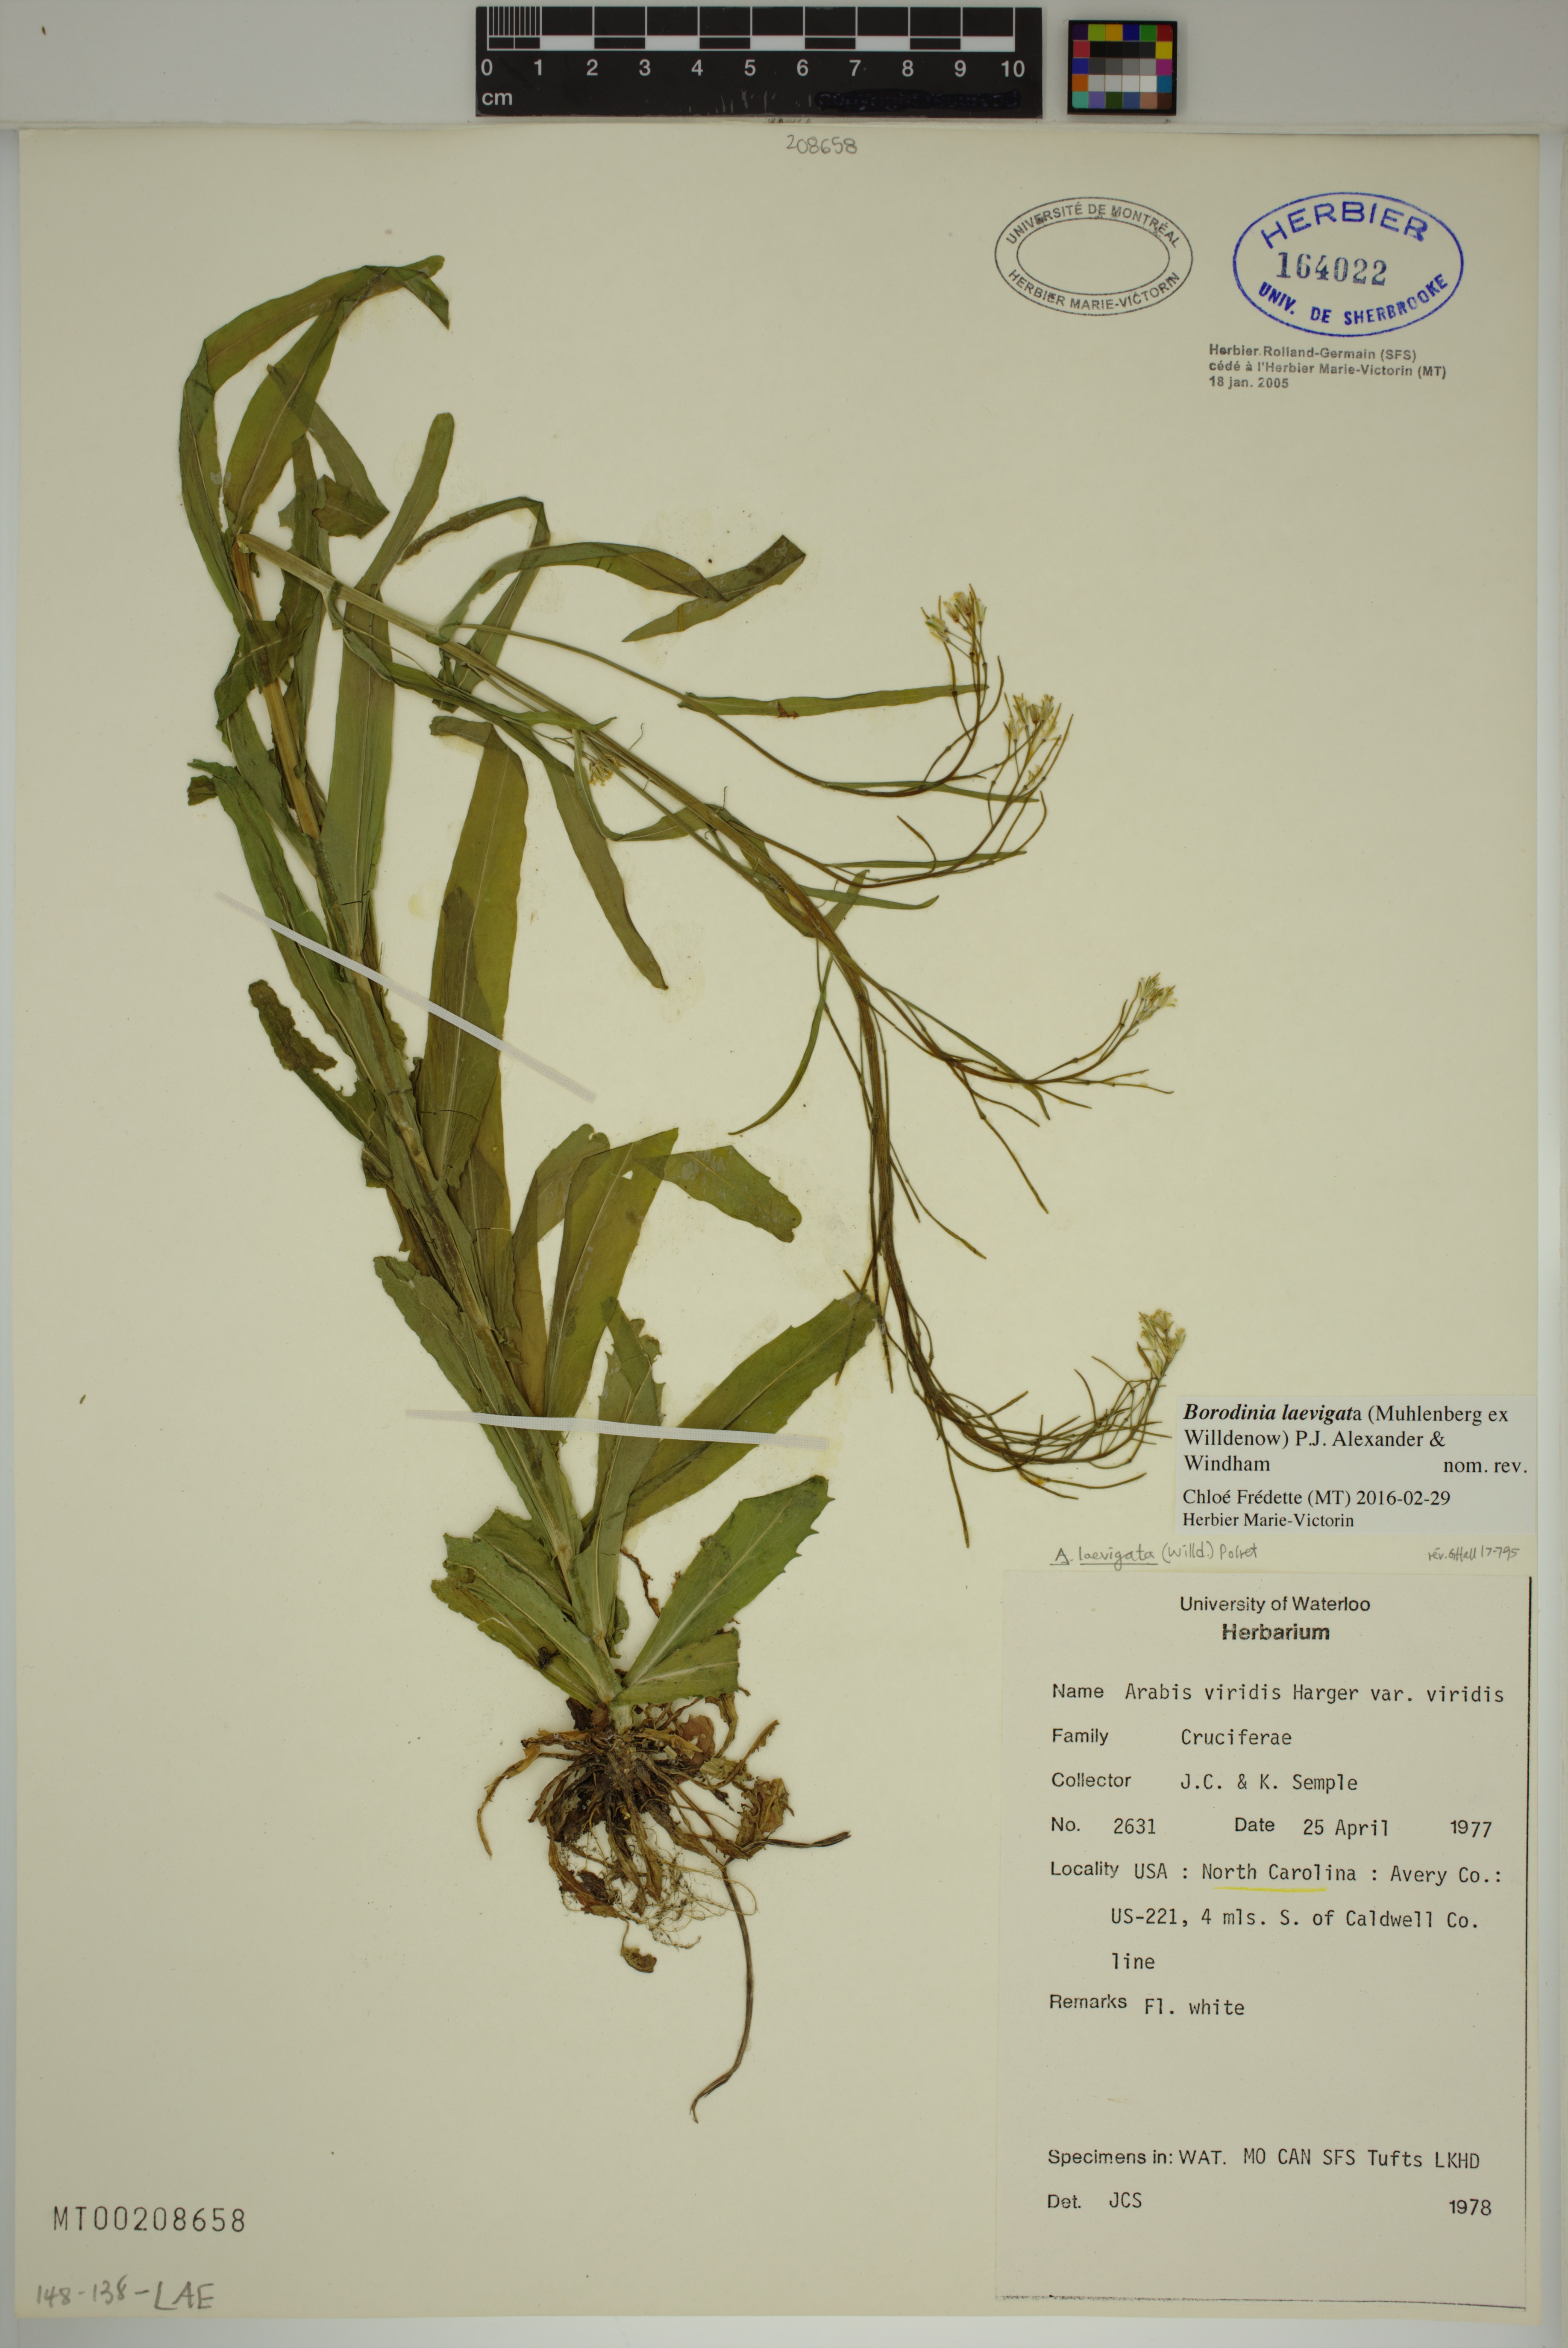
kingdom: Plantae
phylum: Tracheophyta
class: Magnoliopsida
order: Brassicales
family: Brassicaceae
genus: Borodinia
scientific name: Borodinia laevigata
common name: Smooth rockcress
